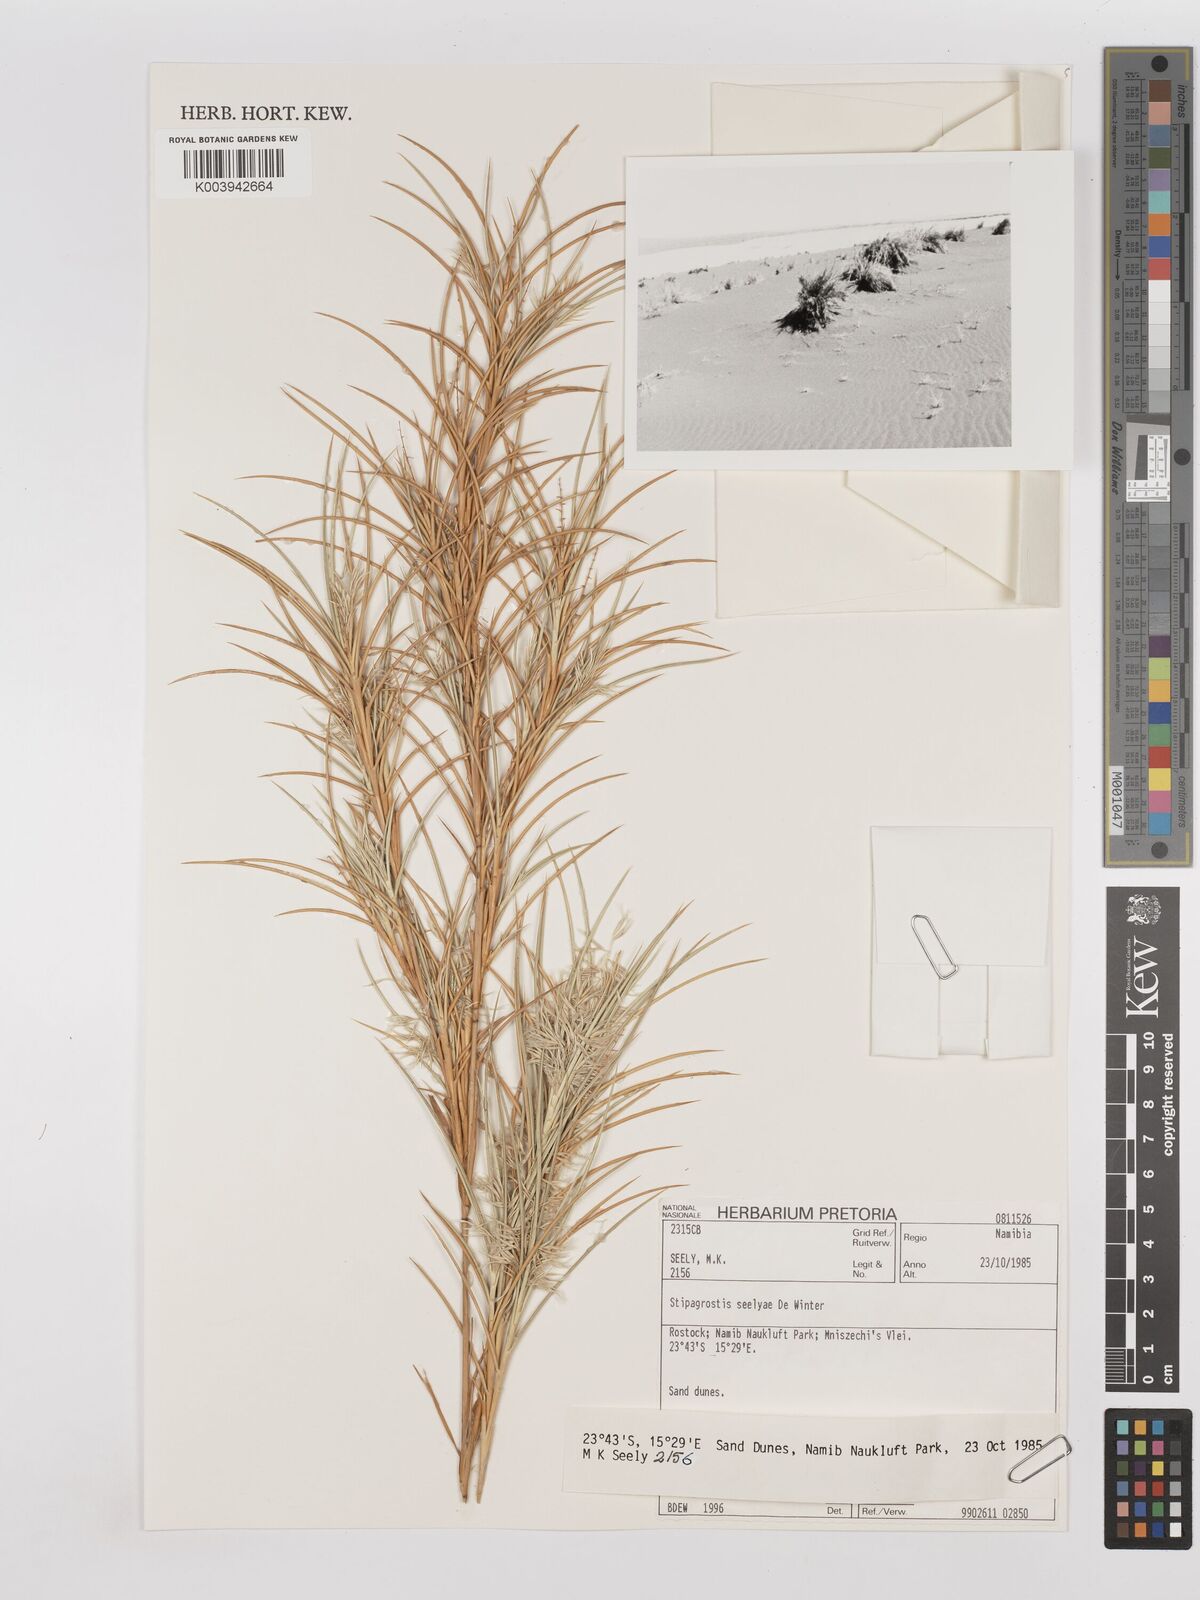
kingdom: Plantae
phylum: Tracheophyta
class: Liliopsida
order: Poales
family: Poaceae
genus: Stipagrostis
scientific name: Stipagrostis seelyae
